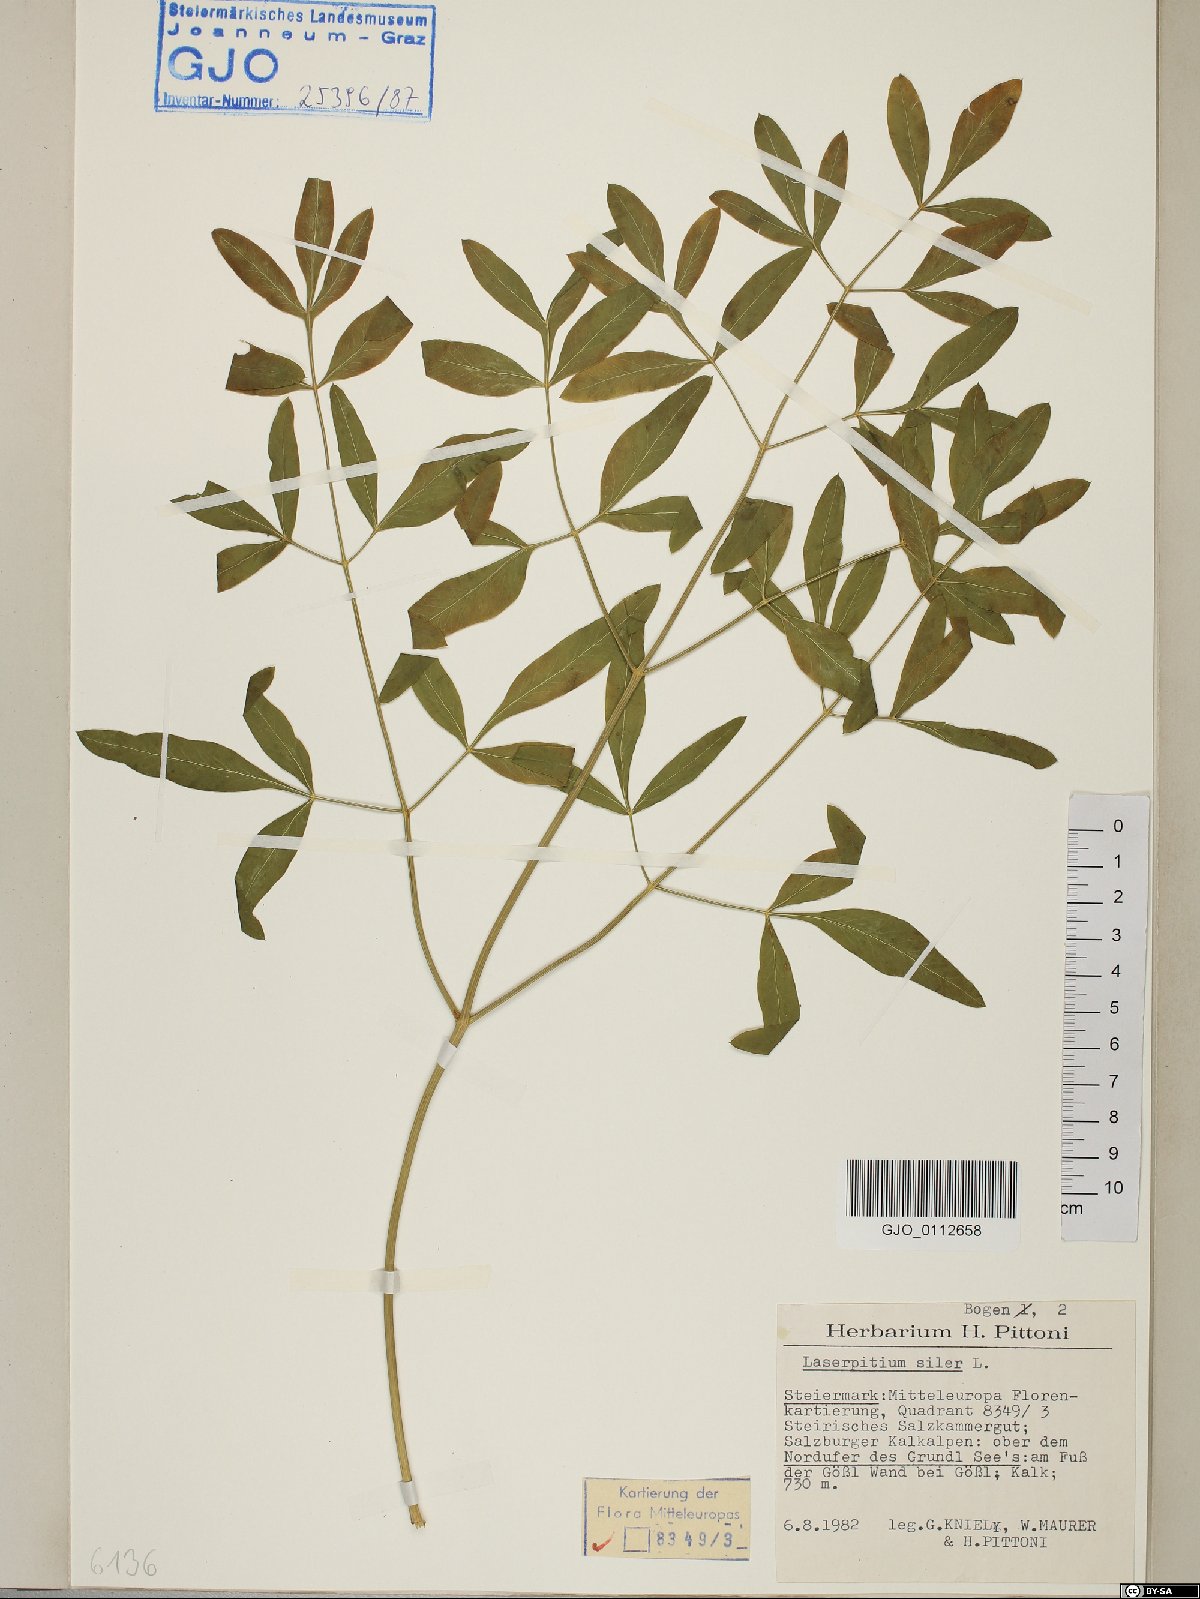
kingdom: Plantae
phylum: Tracheophyta
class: Magnoliopsida
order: Apiales
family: Apiaceae
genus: Siler
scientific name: Siler montanum
